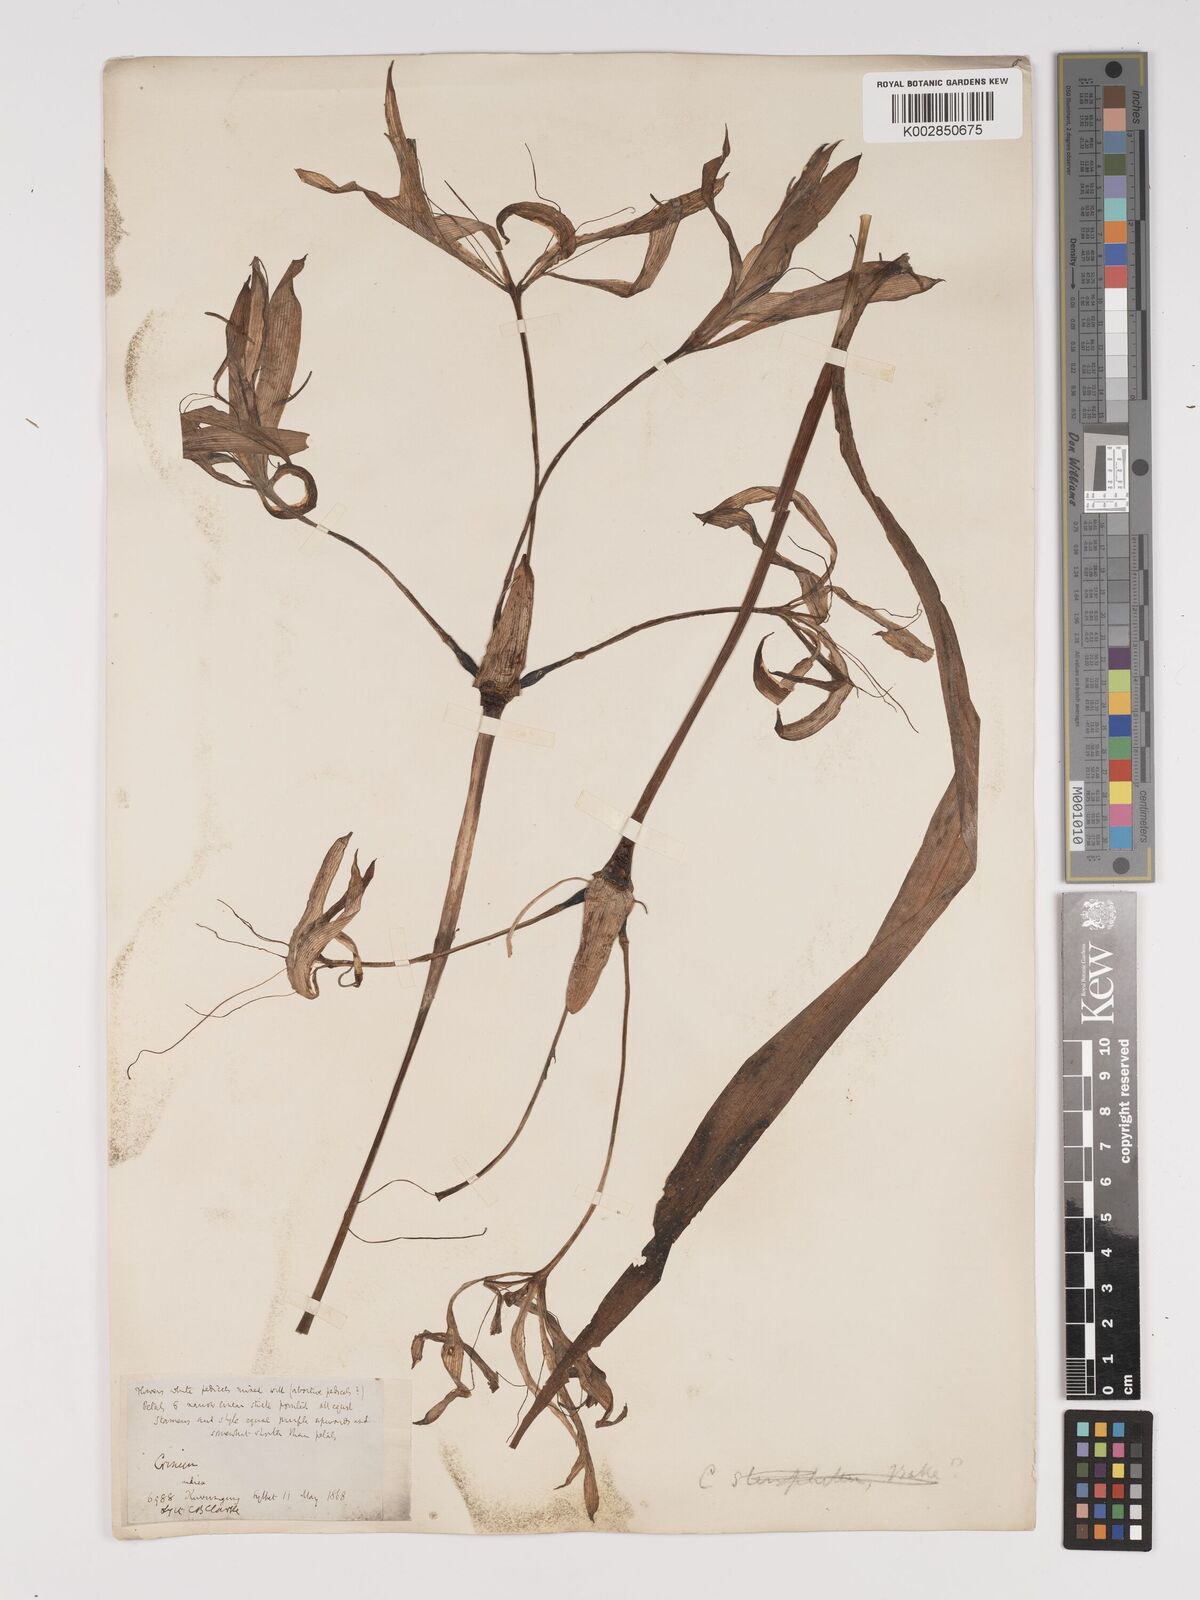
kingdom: Plantae
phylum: Tracheophyta
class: Liliopsida
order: Asparagales
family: Amaryllidaceae
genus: Crinum
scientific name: Crinum amoenum
